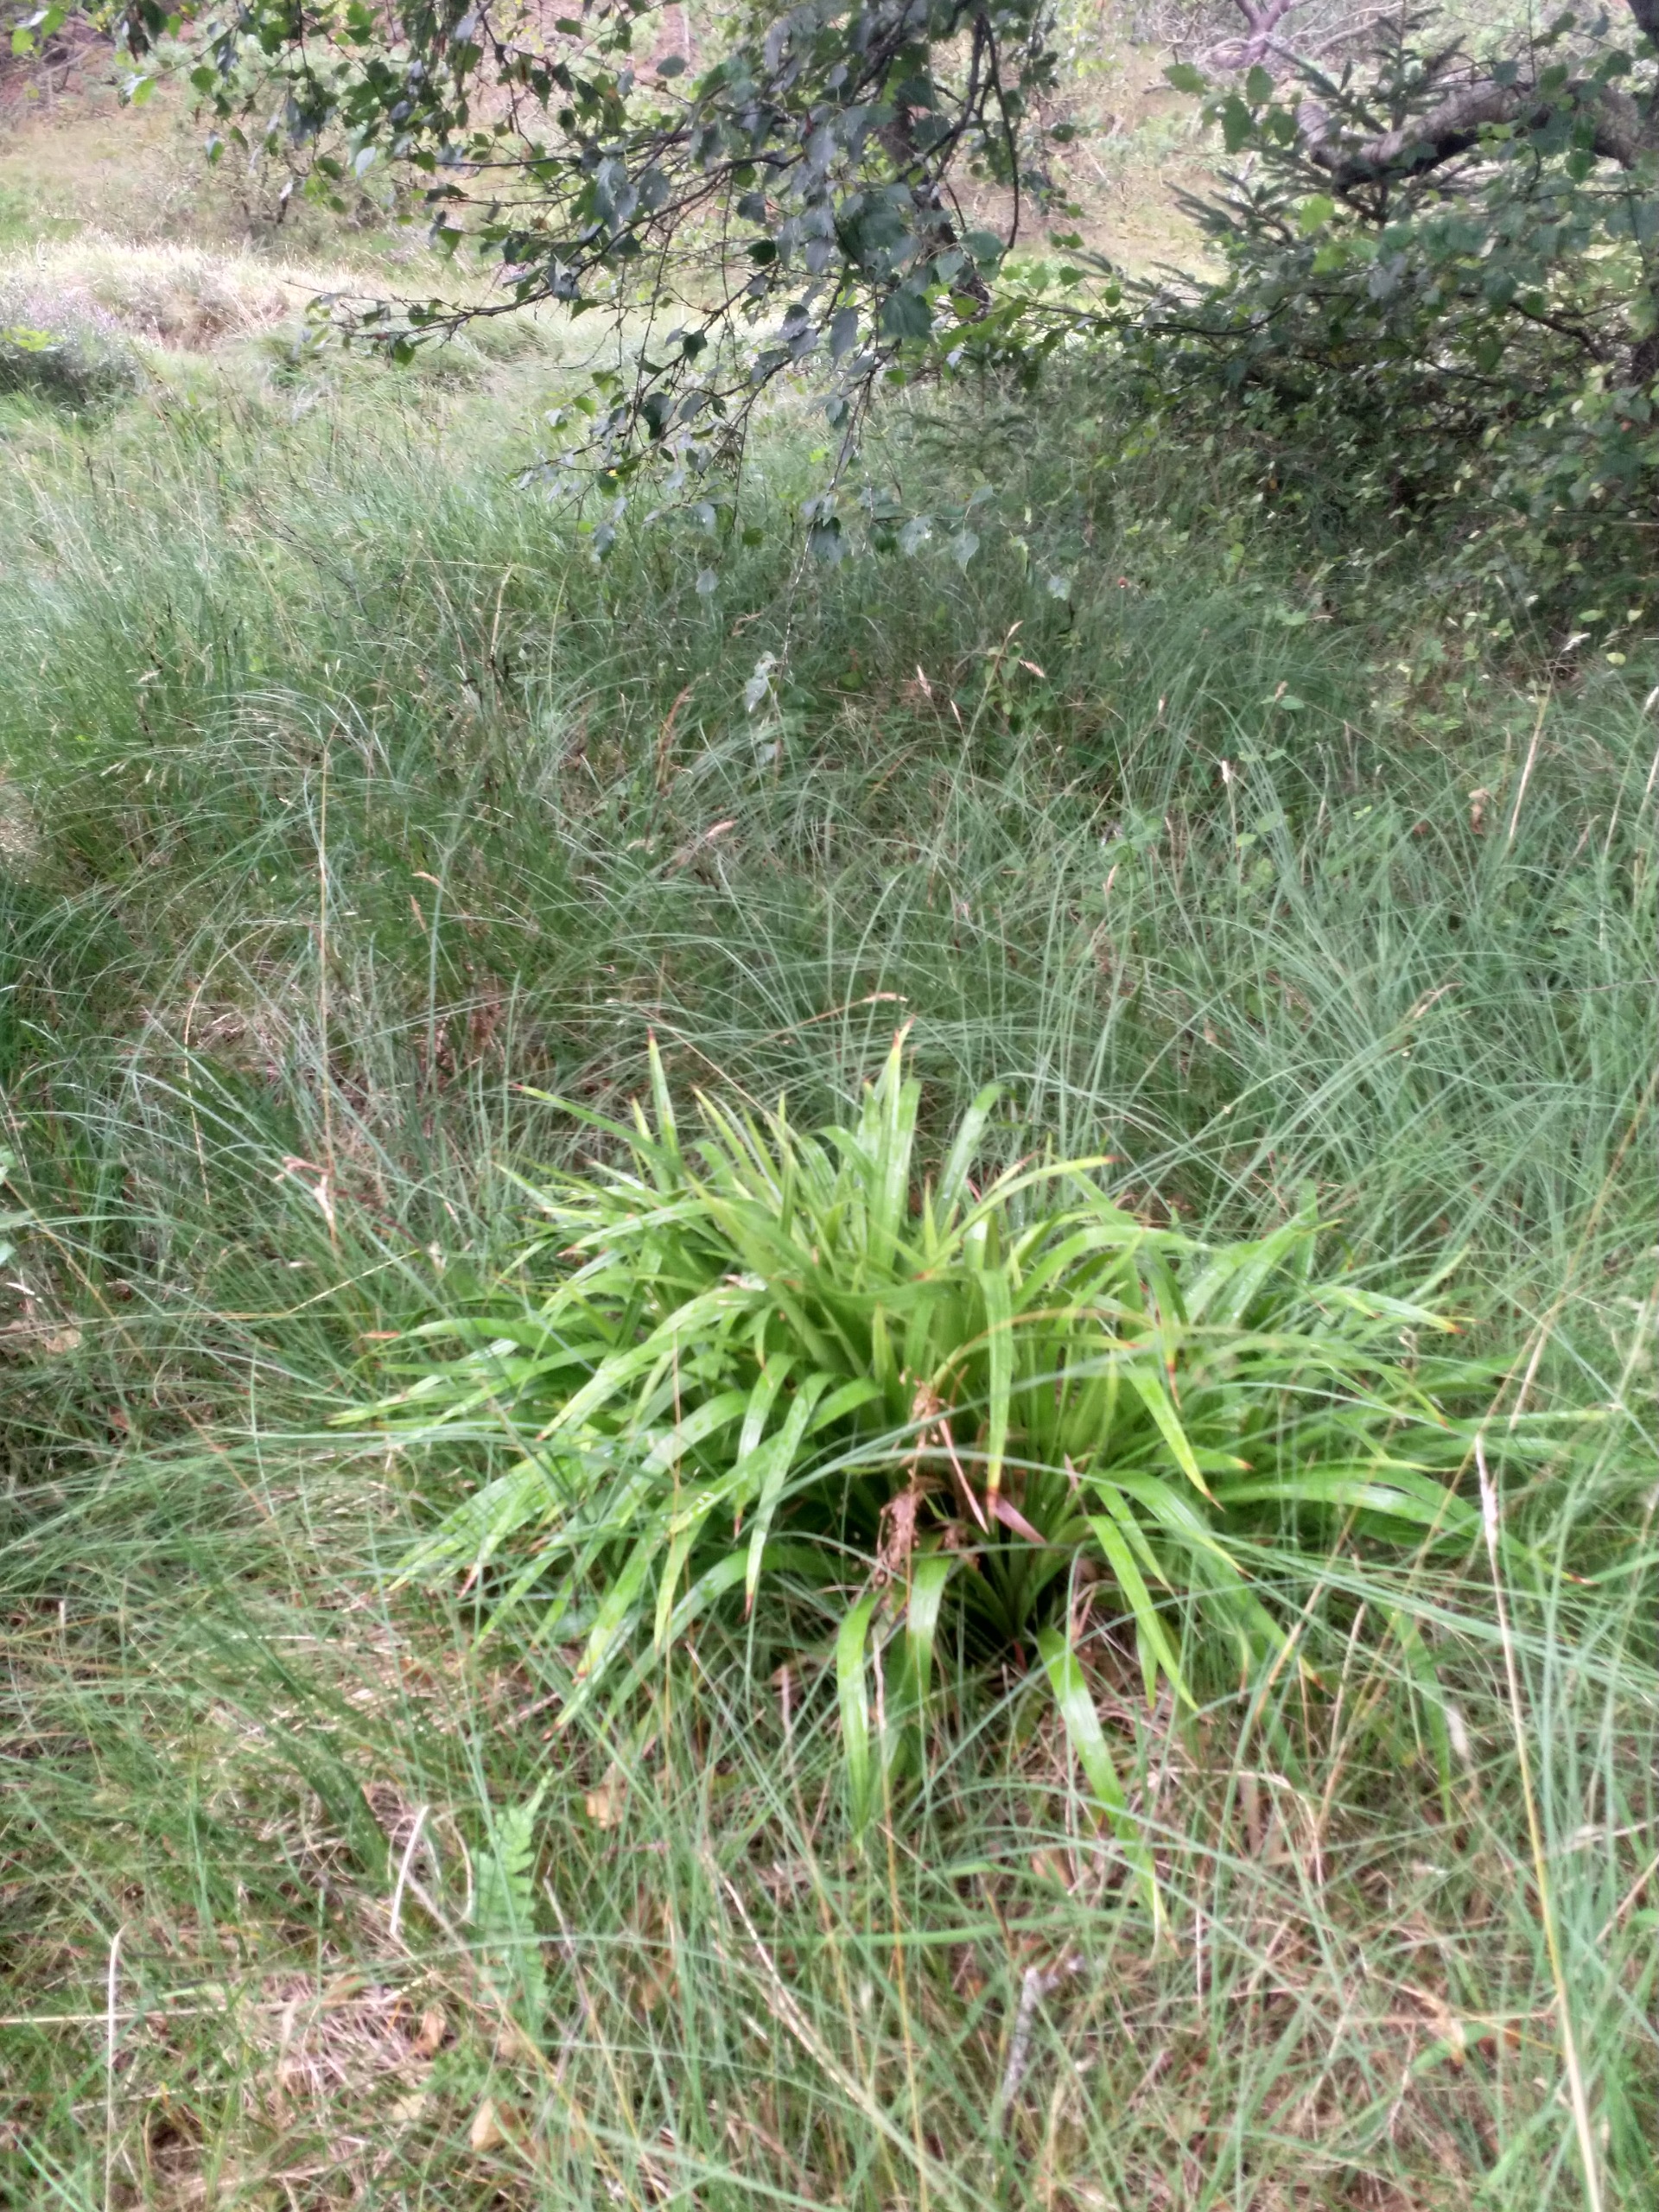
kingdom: Plantae
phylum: Tracheophyta
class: Liliopsida
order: Poales
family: Juncaceae
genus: Luzula
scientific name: Luzula sylvatica
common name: Stor frytle
